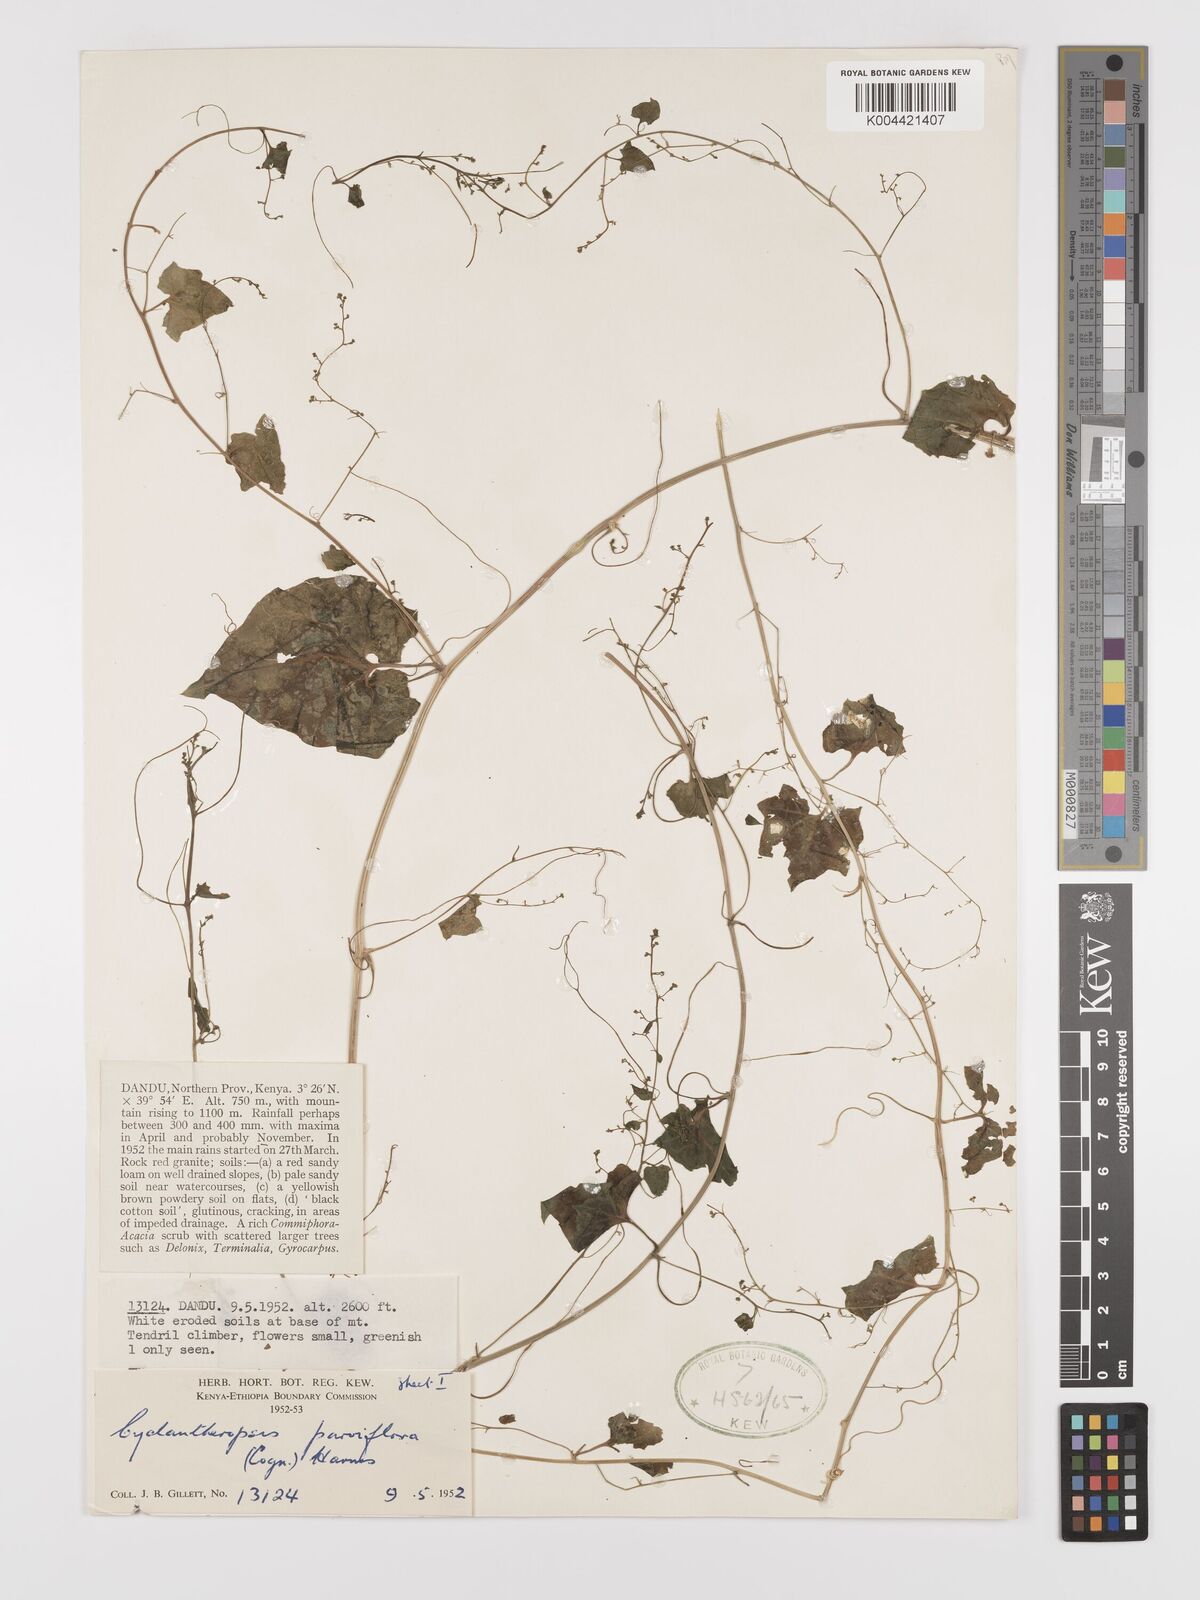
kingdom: Plantae
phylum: Tracheophyta
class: Magnoliopsida
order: Cucurbitales
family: Cucurbitaceae
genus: Cyclantheropsis
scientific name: Cyclantheropsis parviflora
